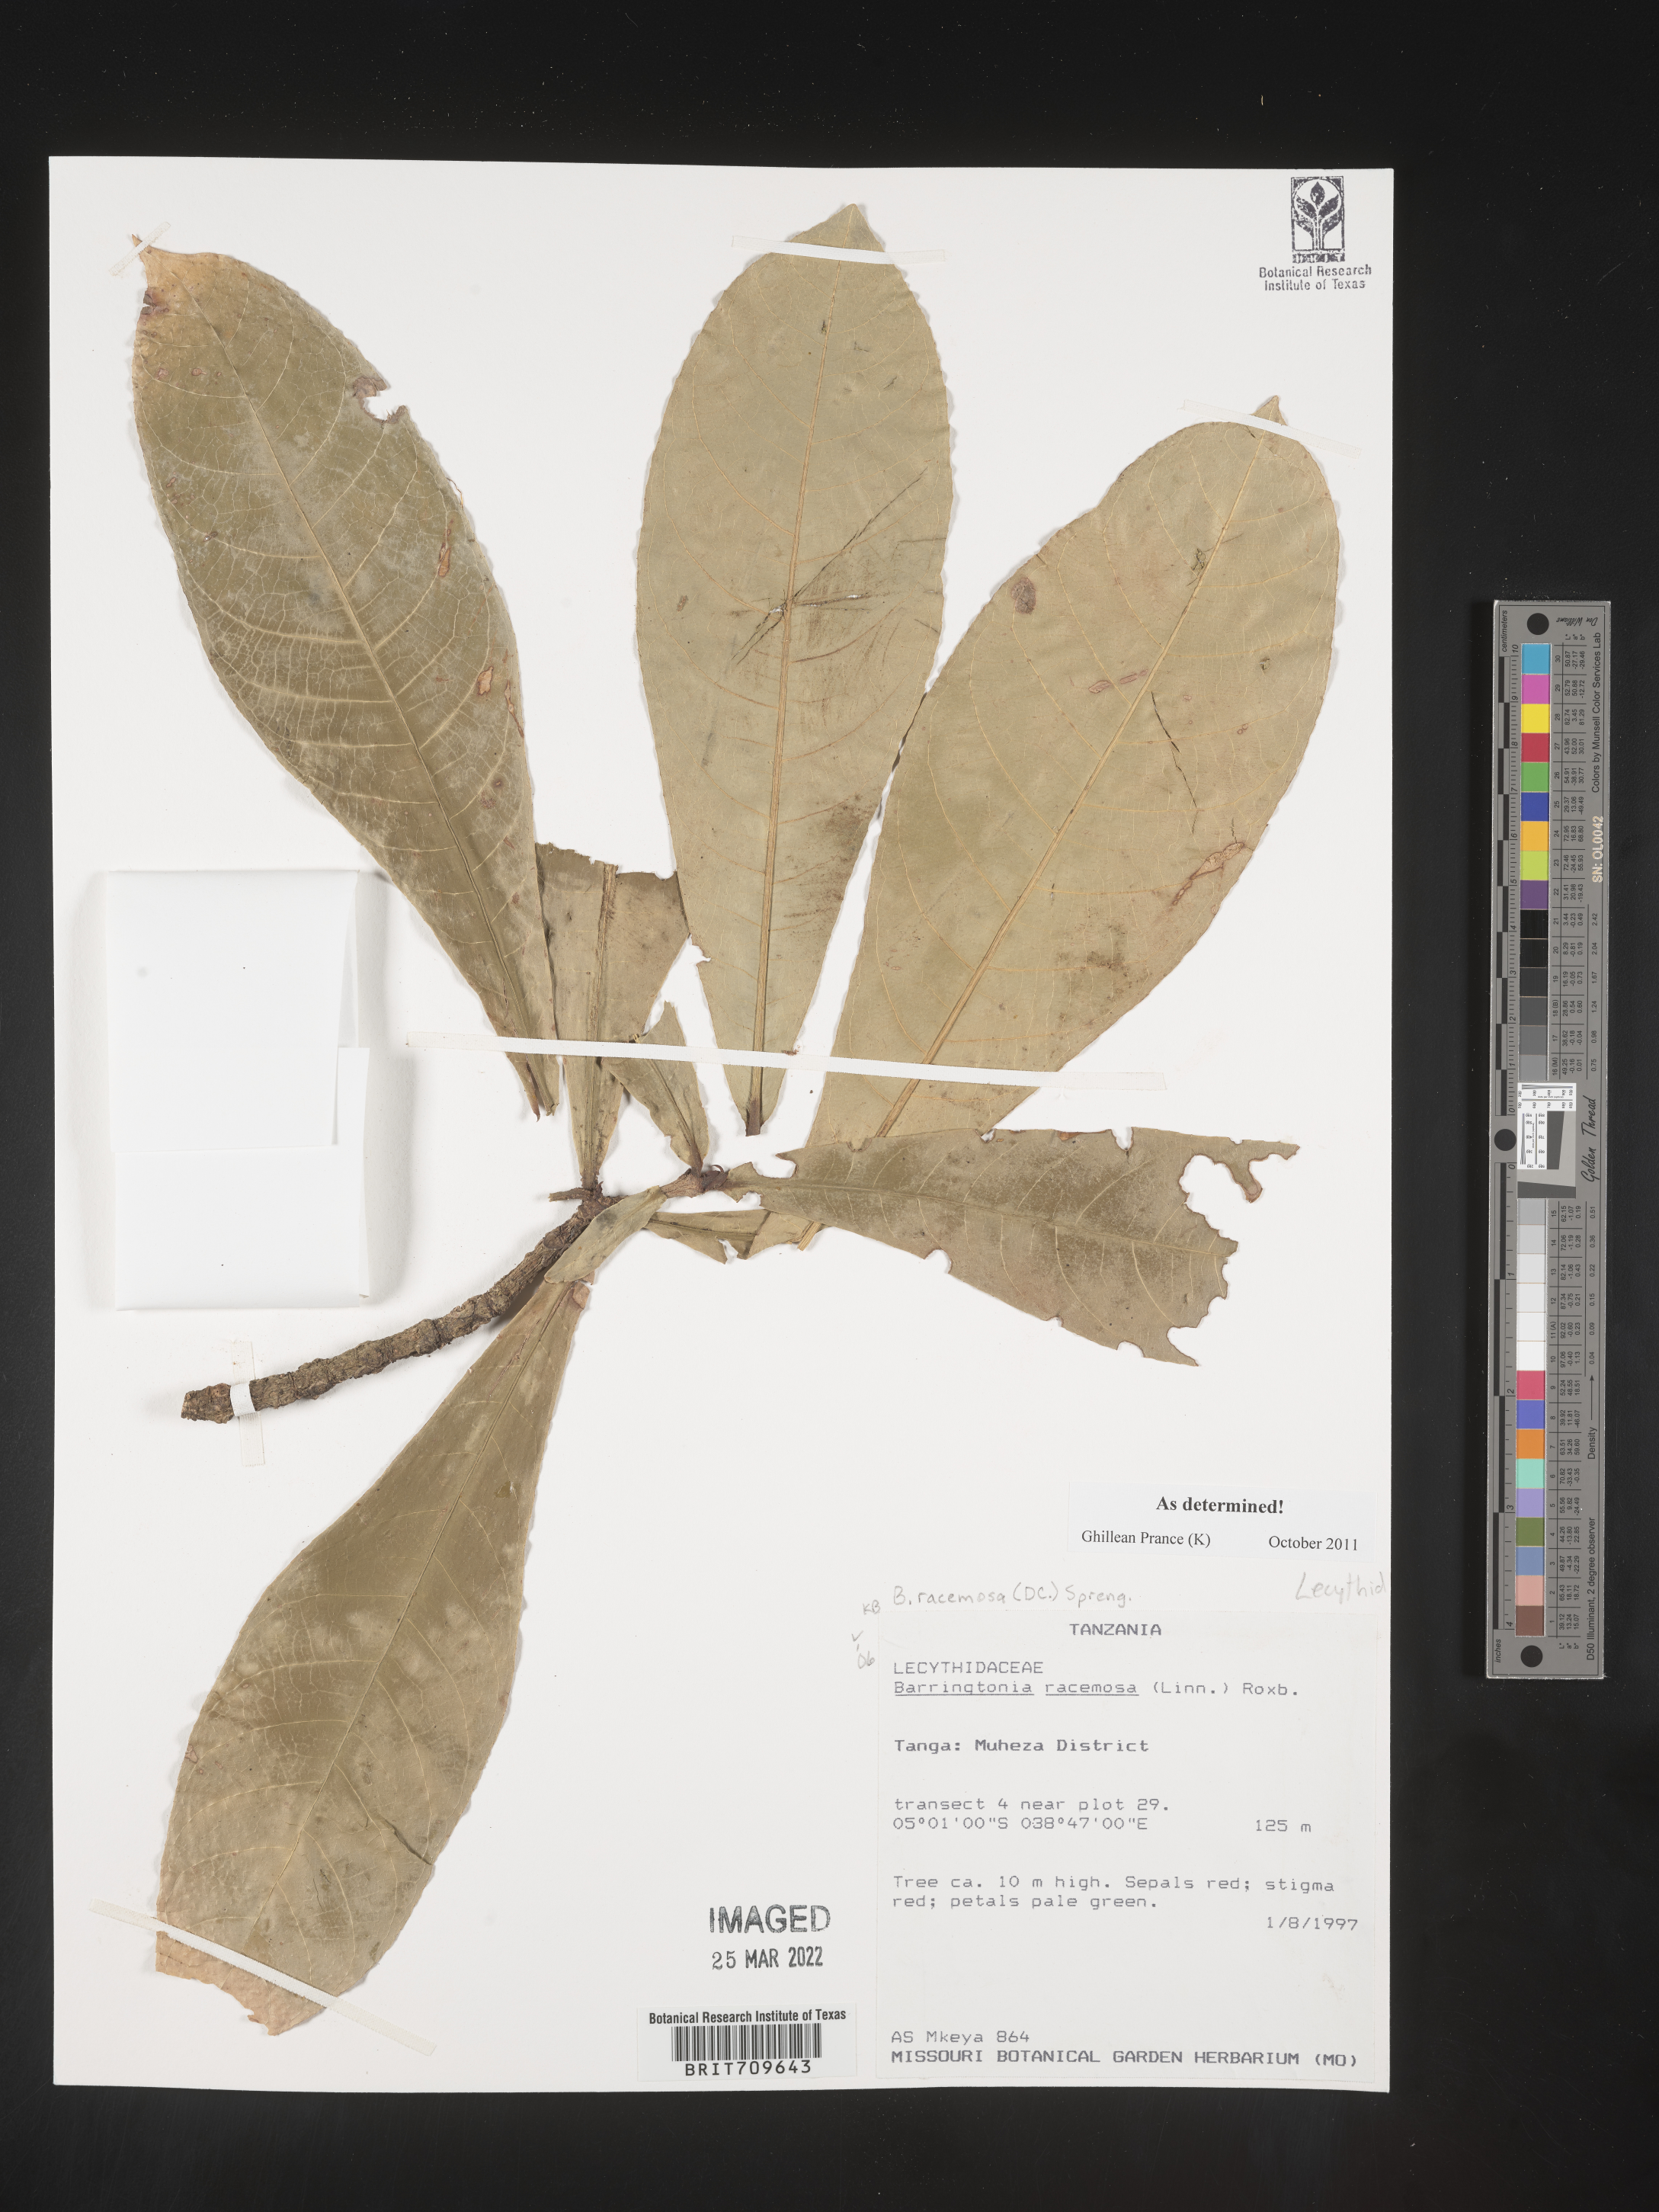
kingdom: Plantae
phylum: Tracheophyta
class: Magnoliopsida
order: Ericales
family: Lecythidaceae
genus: Barringtonia
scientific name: Barringtonia
